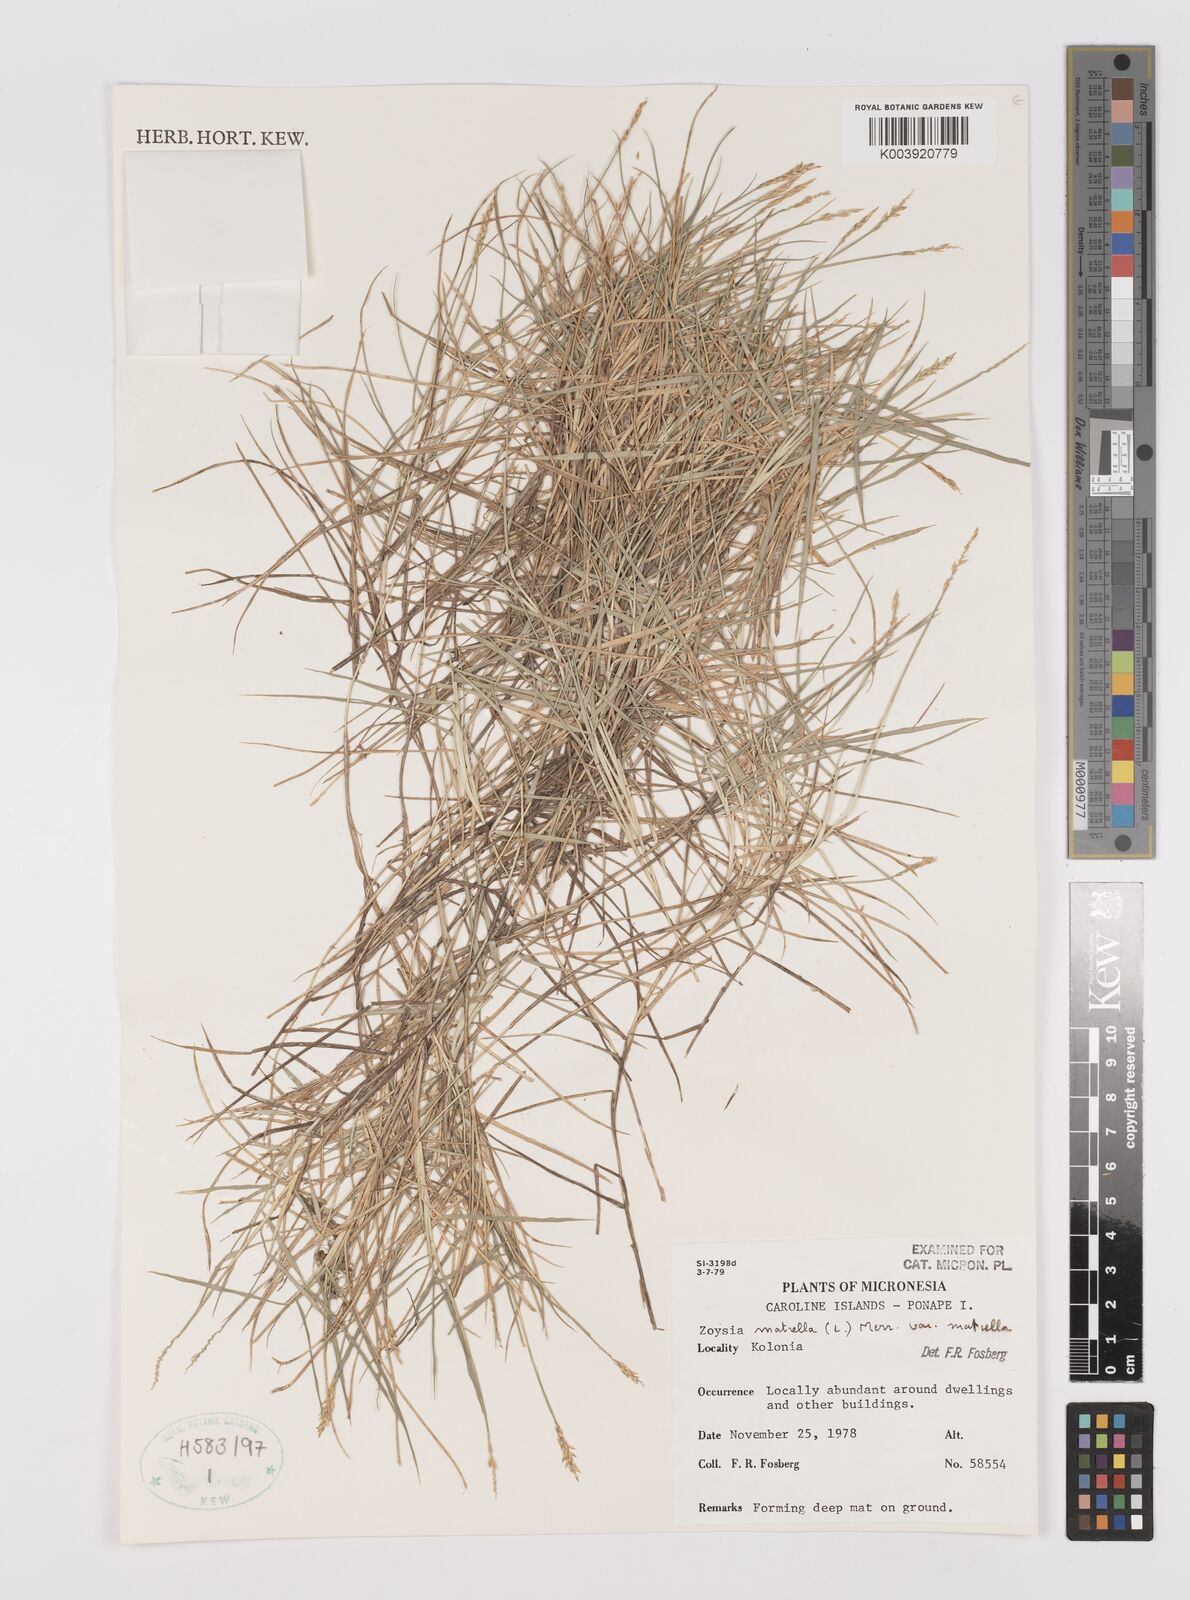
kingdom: Plantae
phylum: Tracheophyta
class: Liliopsida
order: Poales
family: Poaceae
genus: Zoysia
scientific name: Zoysia matrella
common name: Manila grass
